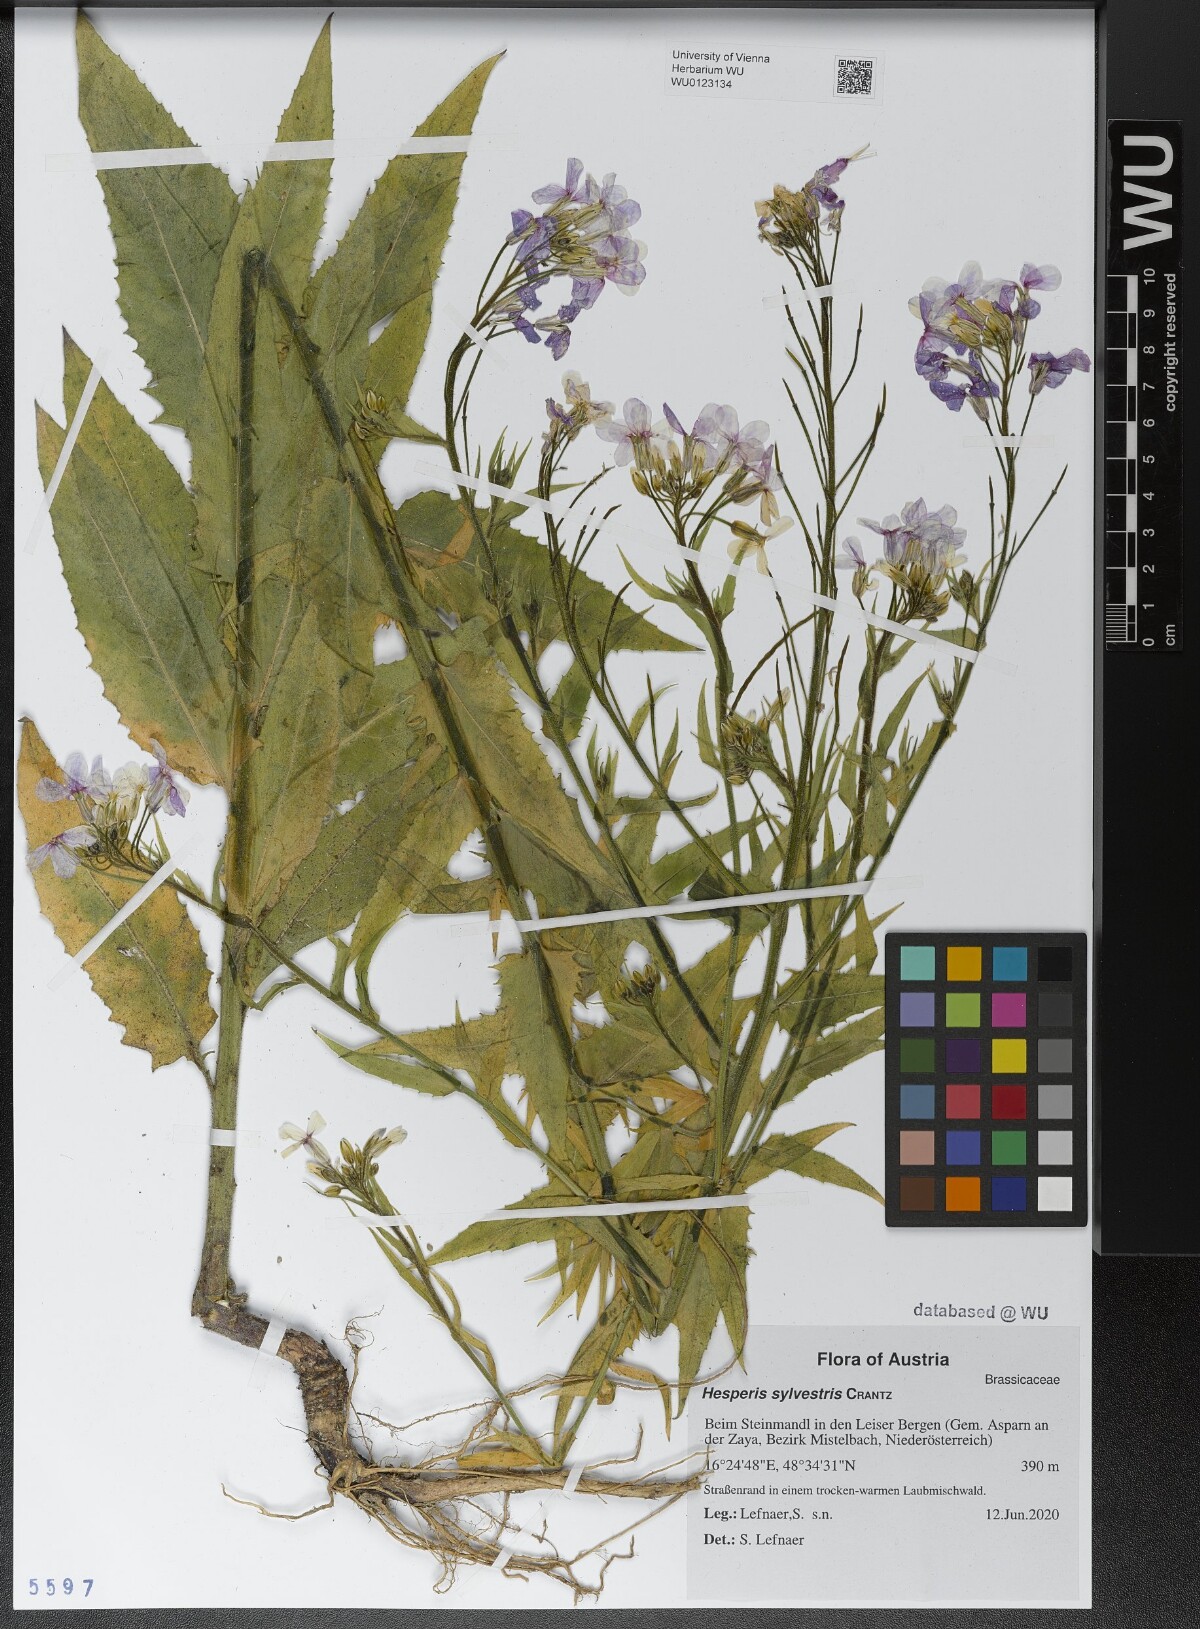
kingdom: Plantae
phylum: Tracheophyta
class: Magnoliopsida
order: Brassicales
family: Brassicaceae
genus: Hesperis
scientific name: Hesperis sylvestris
